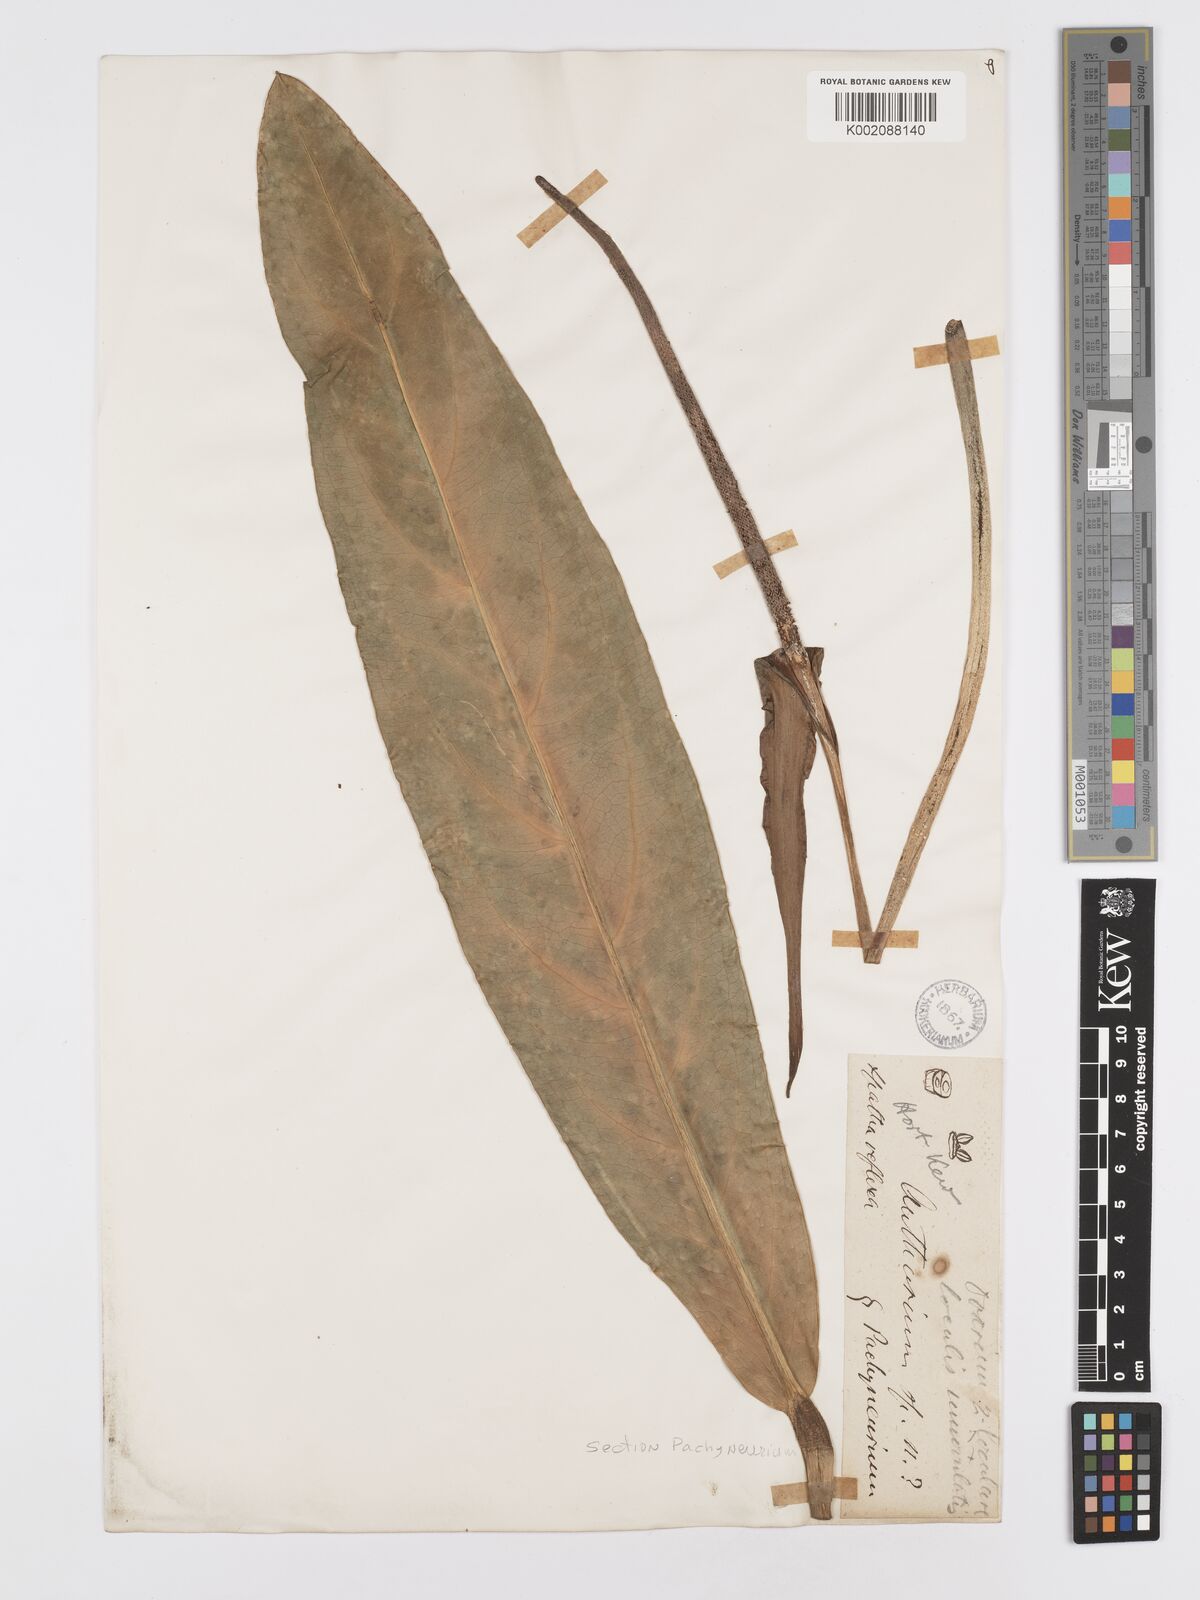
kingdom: Plantae
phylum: Tracheophyta
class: Liliopsida
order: Alismatales
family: Araceae
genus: Anthurium
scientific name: Anthurium
